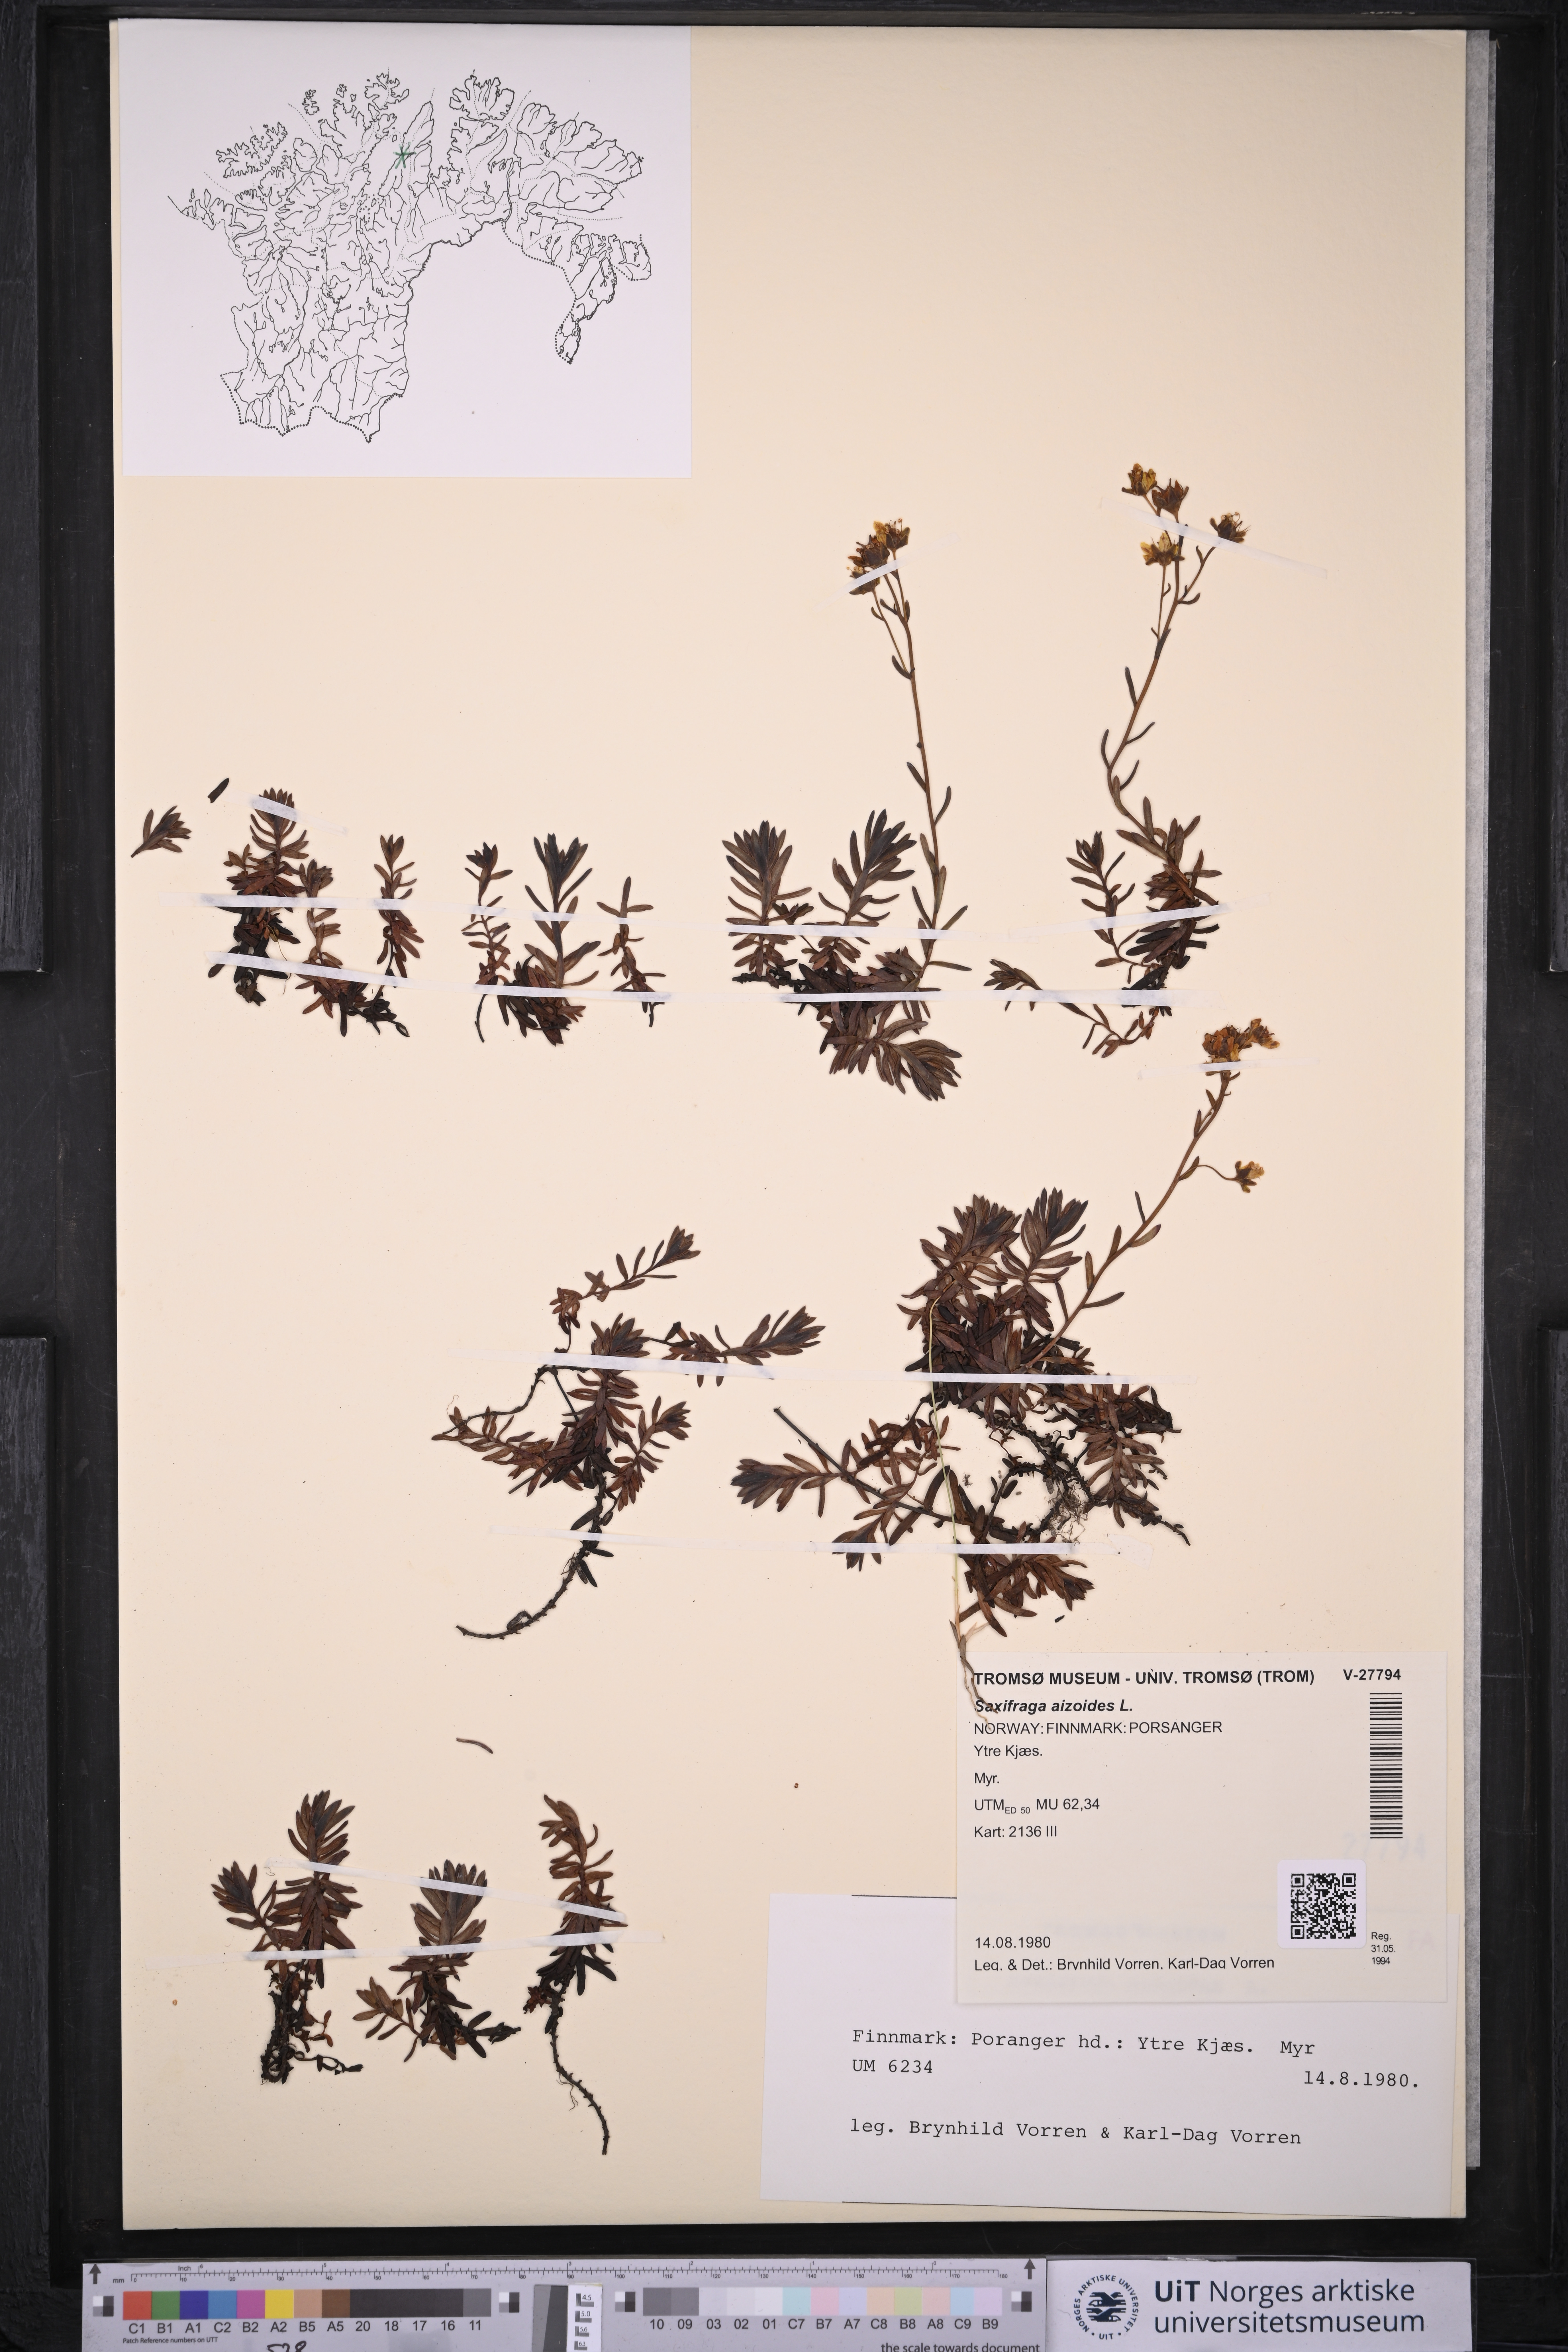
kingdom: Plantae
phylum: Tracheophyta
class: Magnoliopsida
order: Saxifragales
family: Saxifragaceae
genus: Saxifraga
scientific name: Saxifraga aizoides
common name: Yellow mountain saxifrage
